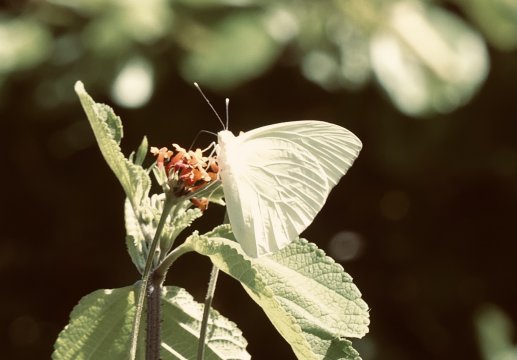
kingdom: Animalia
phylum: Arthropoda
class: Insecta
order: Lepidoptera
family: Pieridae
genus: Aphrissa
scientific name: Aphrissa statira
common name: Statira Sulphur
